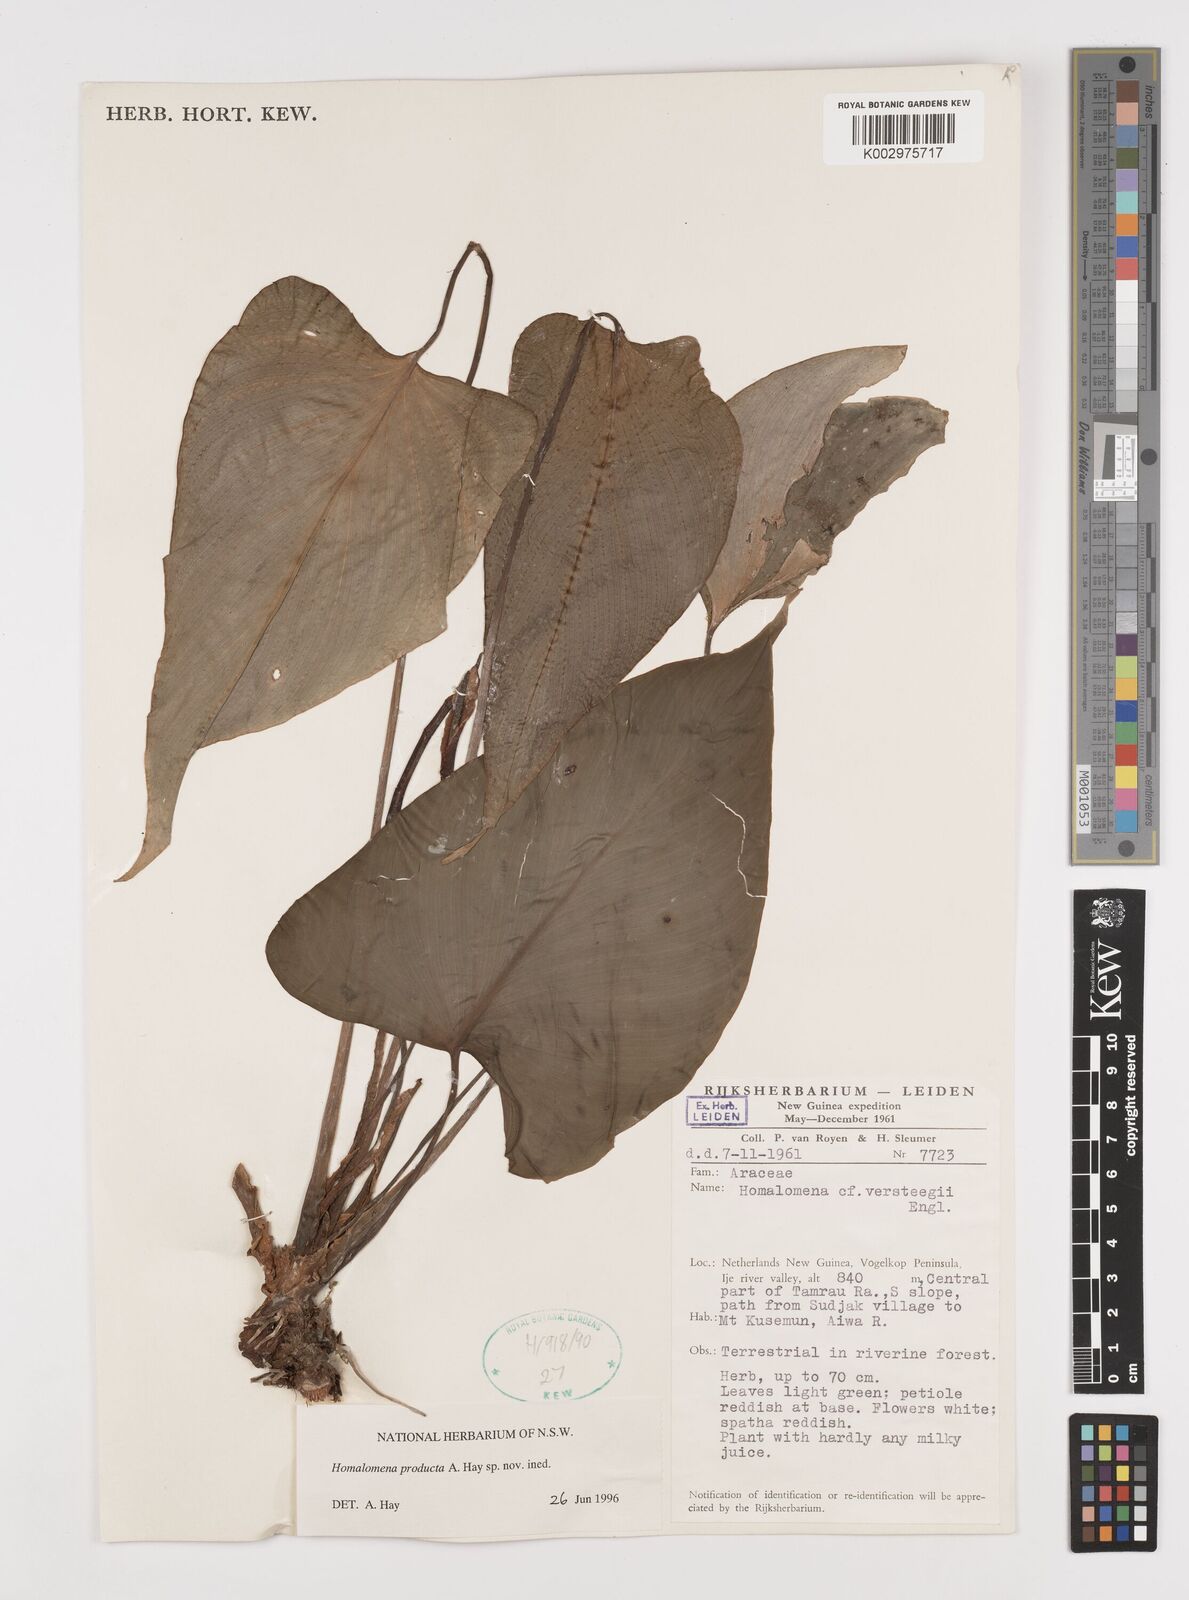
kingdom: Plantae
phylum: Tracheophyta
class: Liliopsida
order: Alismatales
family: Araceae
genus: Homalomena
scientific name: Homalomena producta
